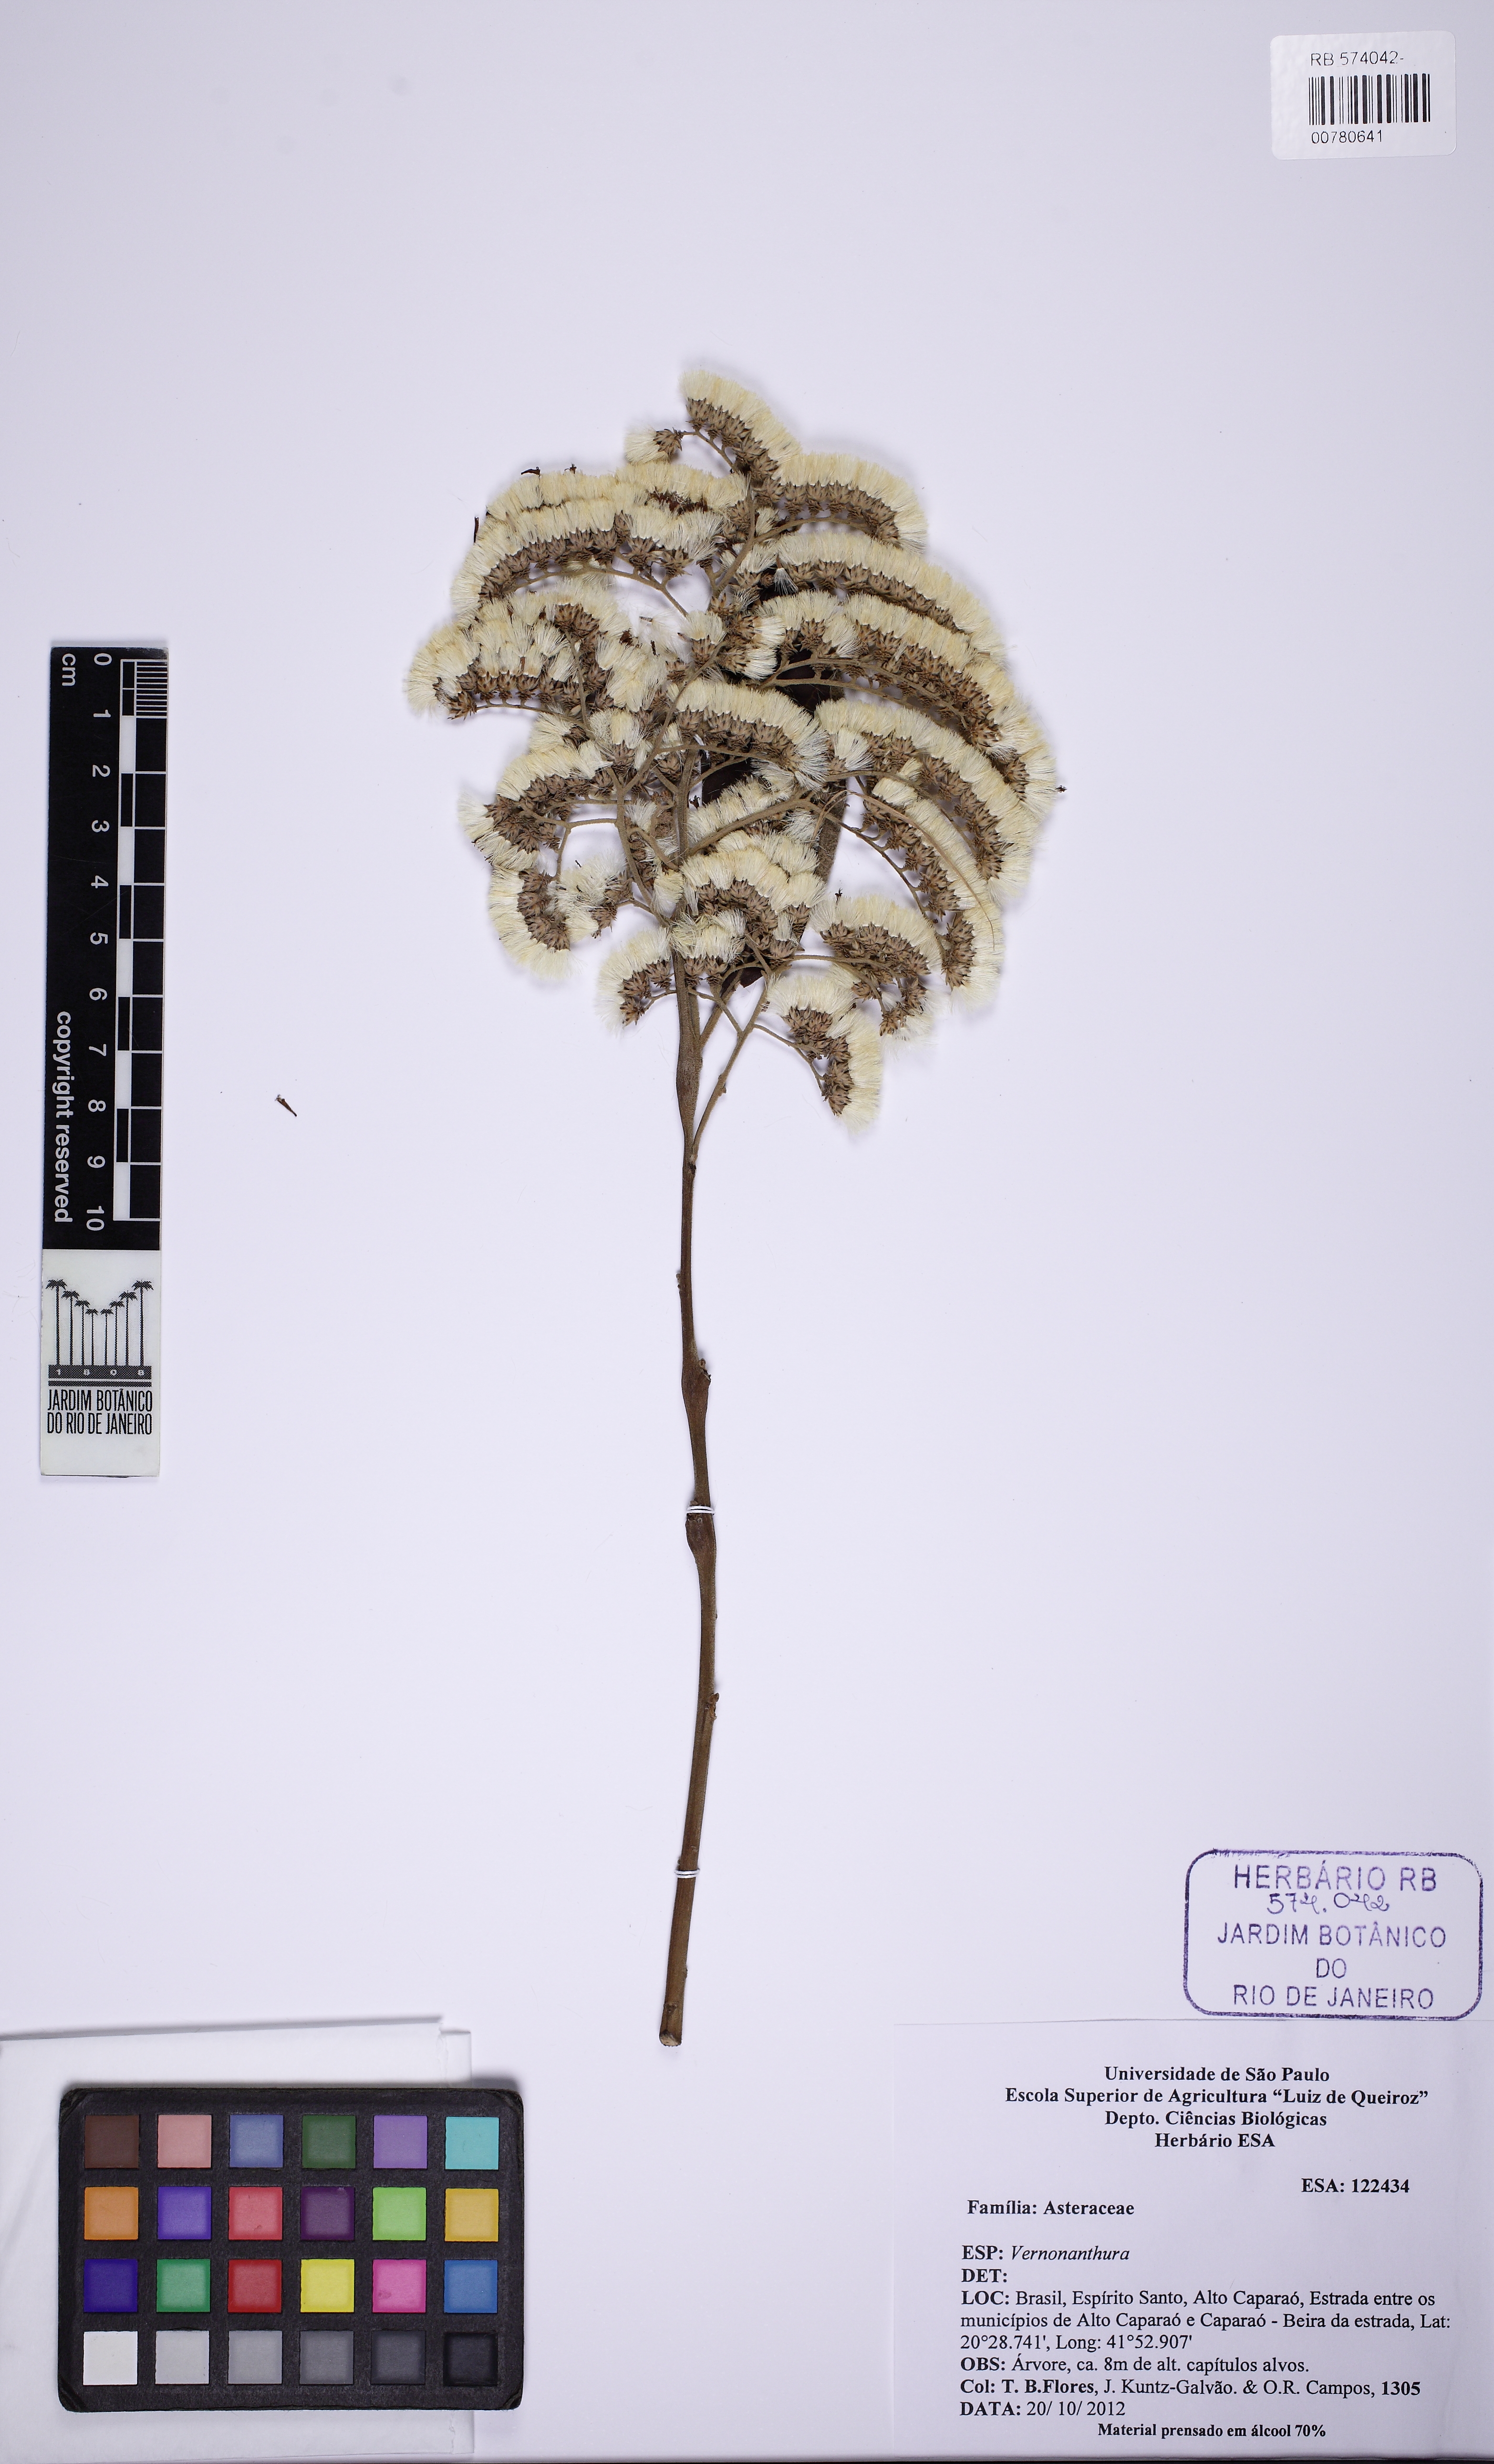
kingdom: Plantae
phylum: Tracheophyta
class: Magnoliopsida
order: Asterales
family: Asteraceae
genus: Vernonanthura
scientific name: Vernonanthura divaricata
